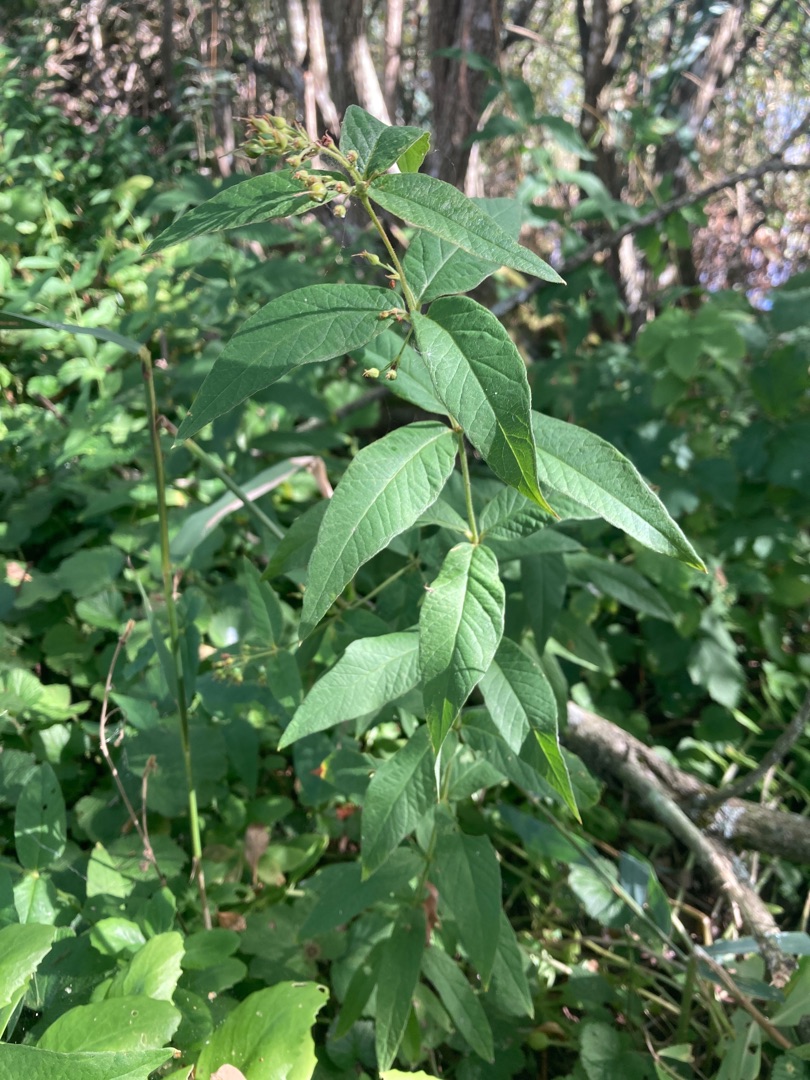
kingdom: Plantae
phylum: Tracheophyta
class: Magnoliopsida
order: Ericales
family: Primulaceae
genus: Lysimachia
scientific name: Lysimachia vulgaris
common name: Almindelig fredløs
